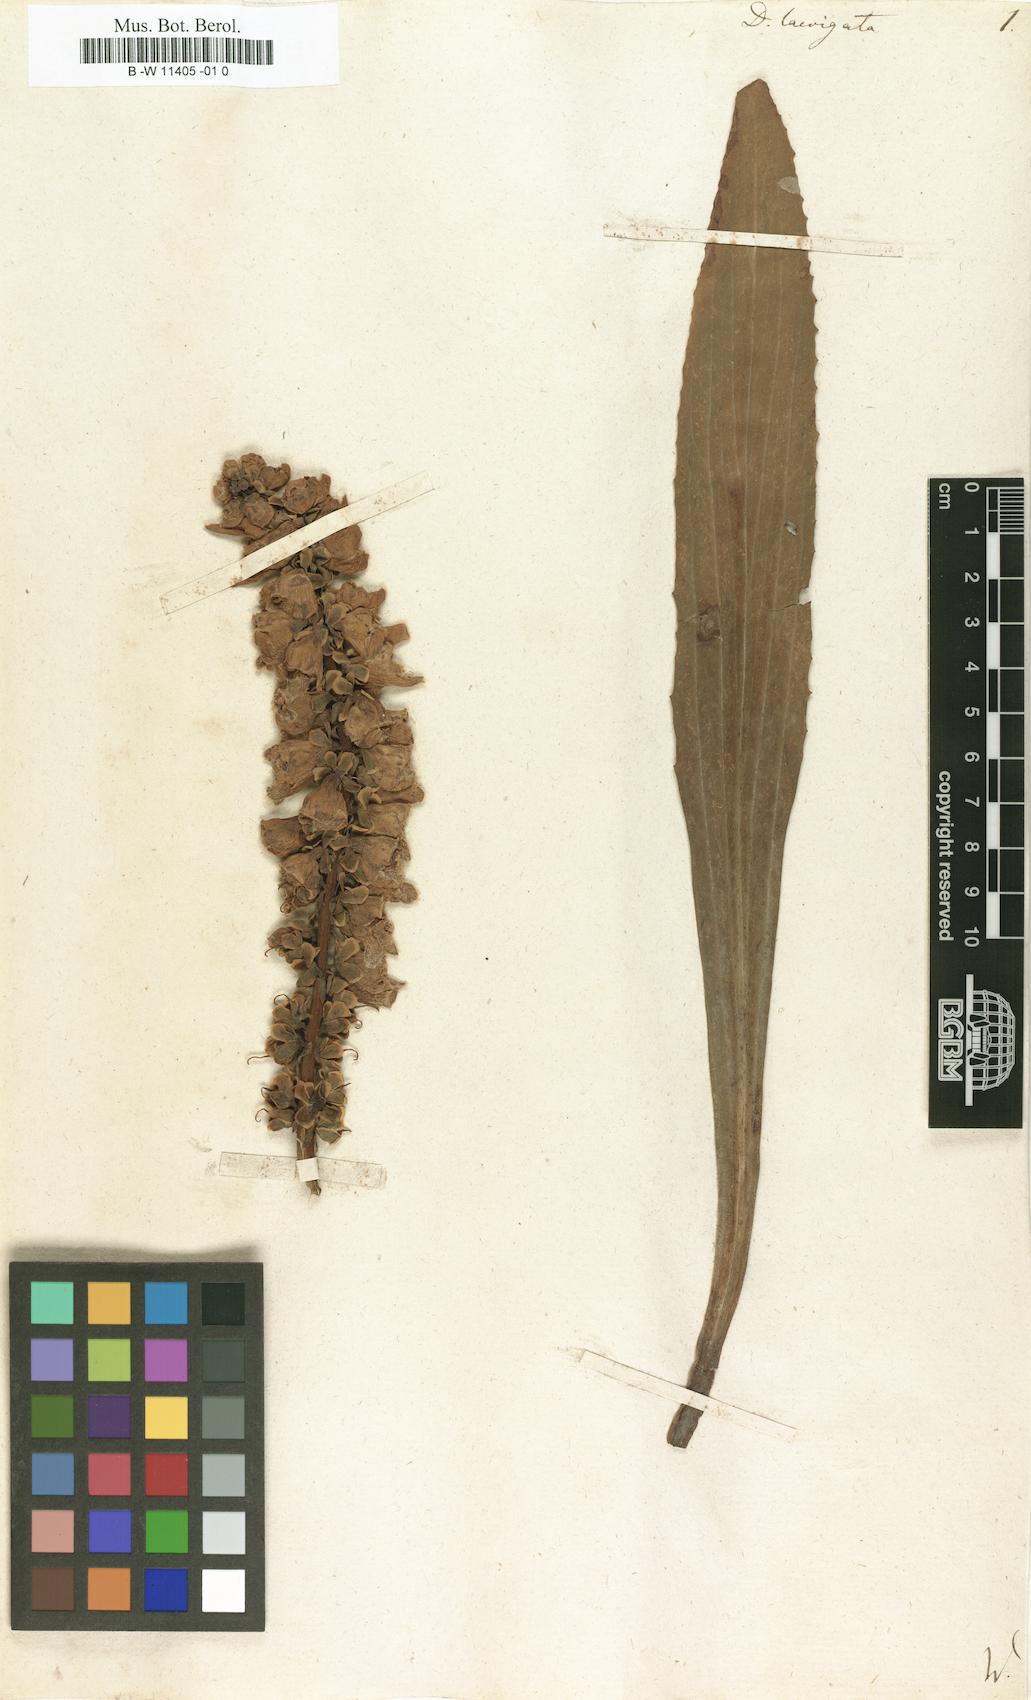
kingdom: Plantae
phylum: Tracheophyta
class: Magnoliopsida
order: Lamiales
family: Plantaginaceae
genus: Digitalis
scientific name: Digitalis laevigata
